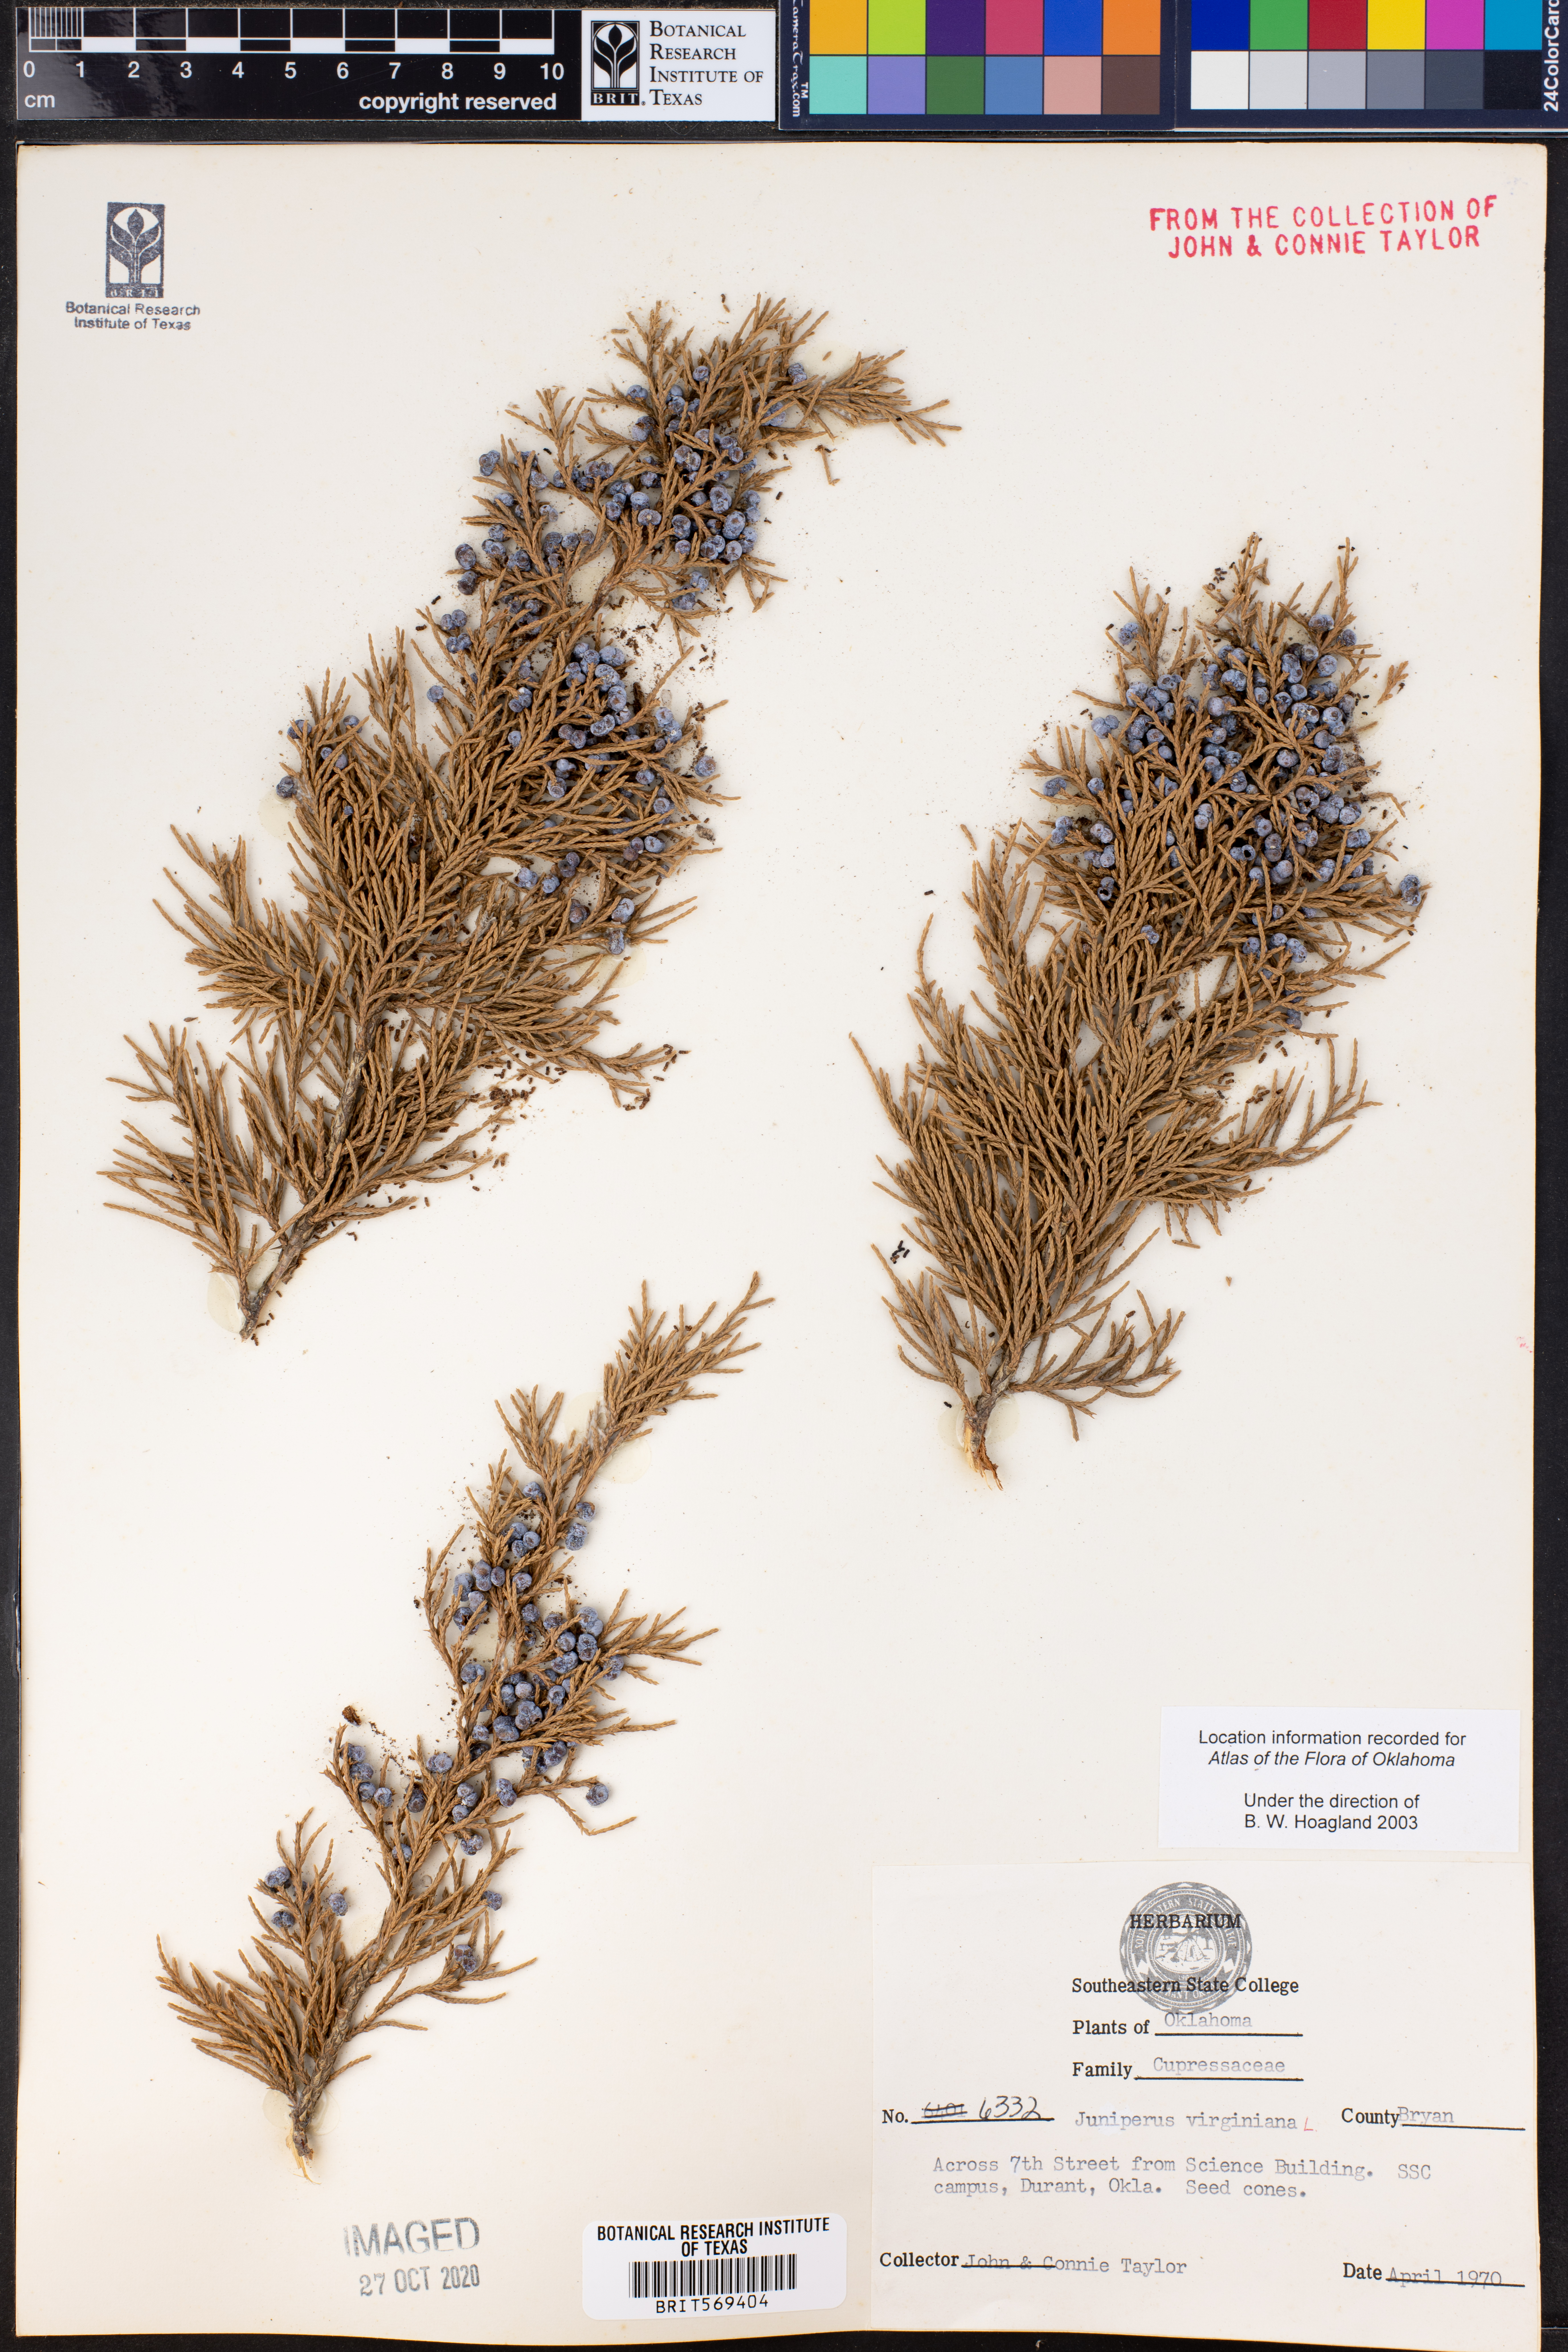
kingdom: Plantae
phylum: Tracheophyta
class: Pinopsida
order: Pinales
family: Cupressaceae
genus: Juniperus
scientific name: Juniperus virginiana
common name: Red juniper
